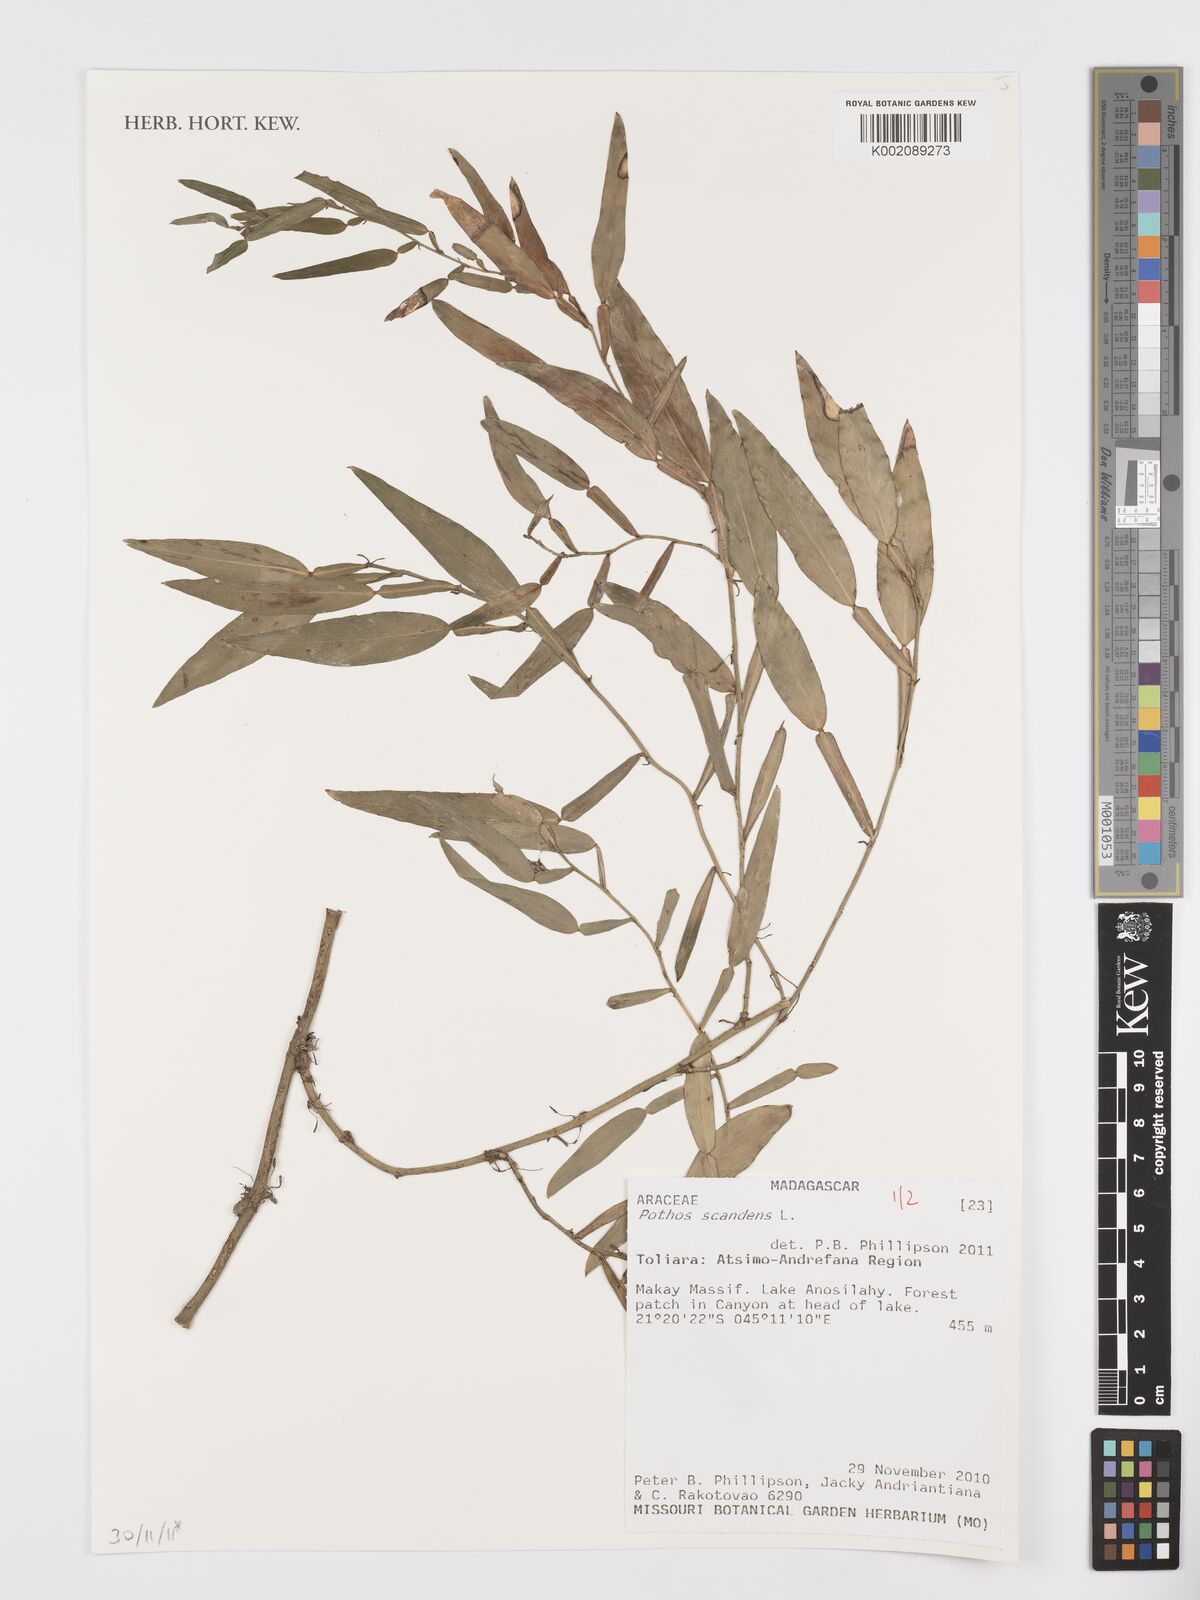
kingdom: Plantae
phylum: Tracheophyta
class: Liliopsida
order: Alismatales
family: Araceae
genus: Pothos
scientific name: Pothos scandens
